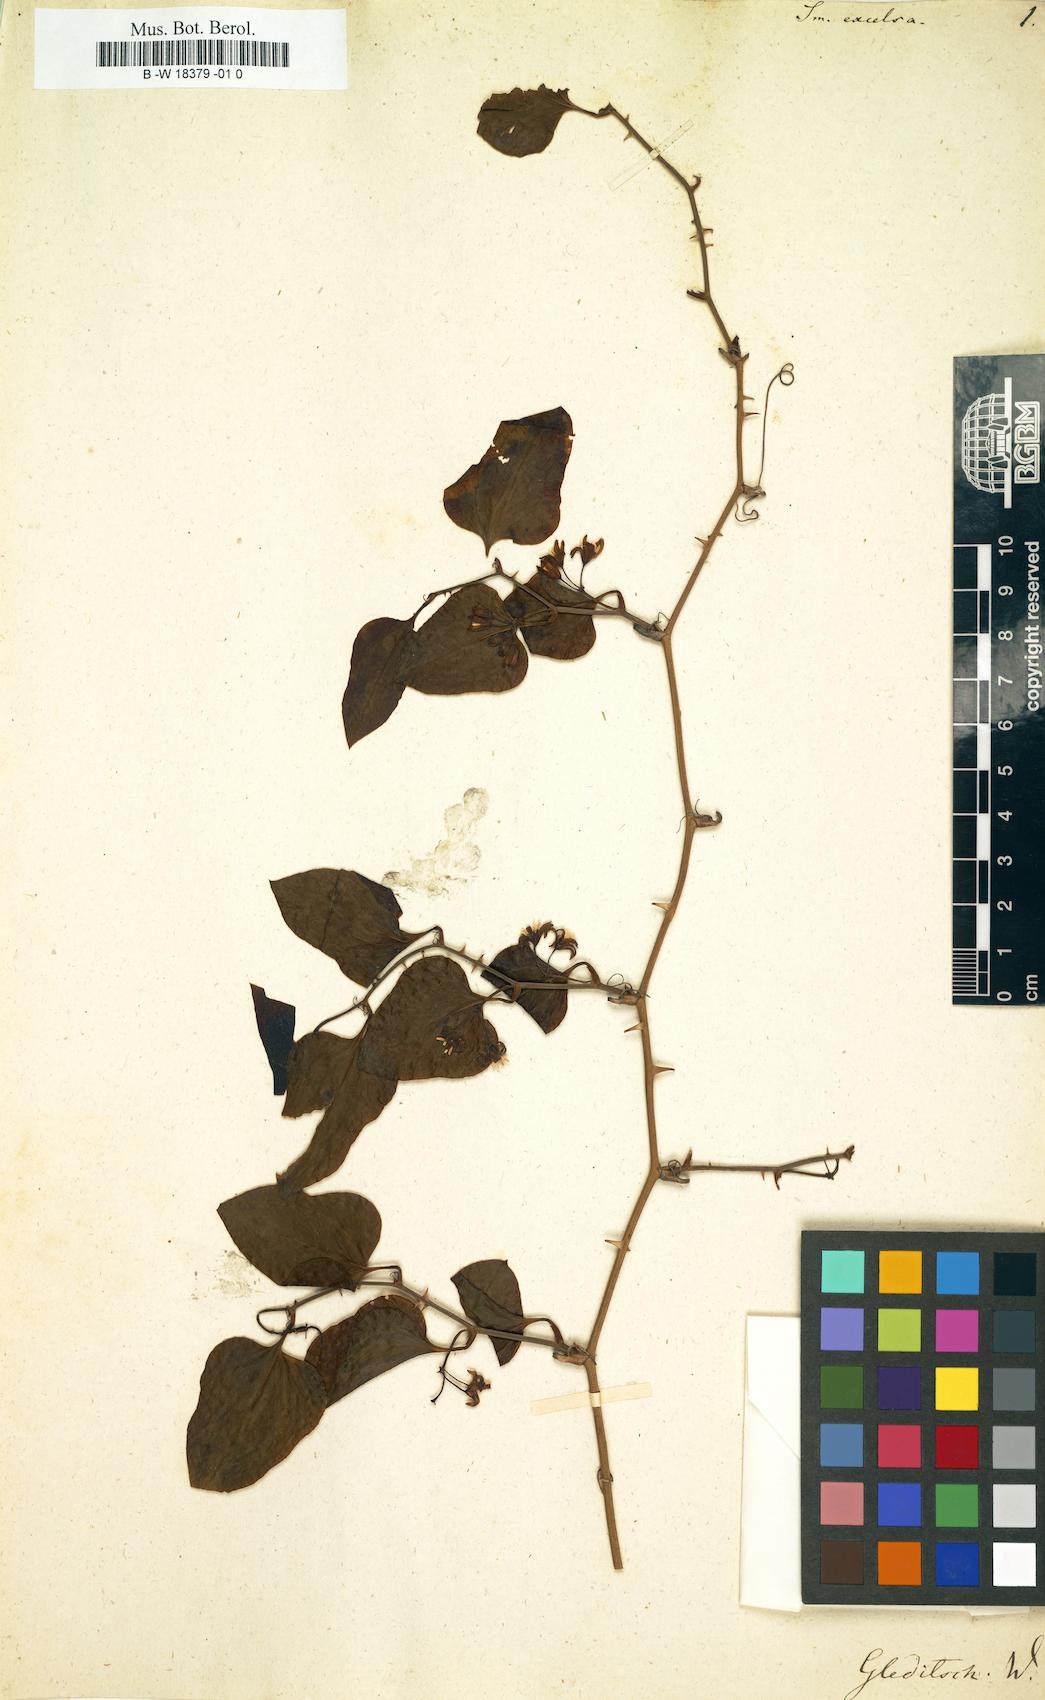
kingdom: Plantae
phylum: Tracheophyta
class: Liliopsida
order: Liliales
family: Smilacaceae
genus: Smilax
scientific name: Smilax excelsa
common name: Larger smilax
